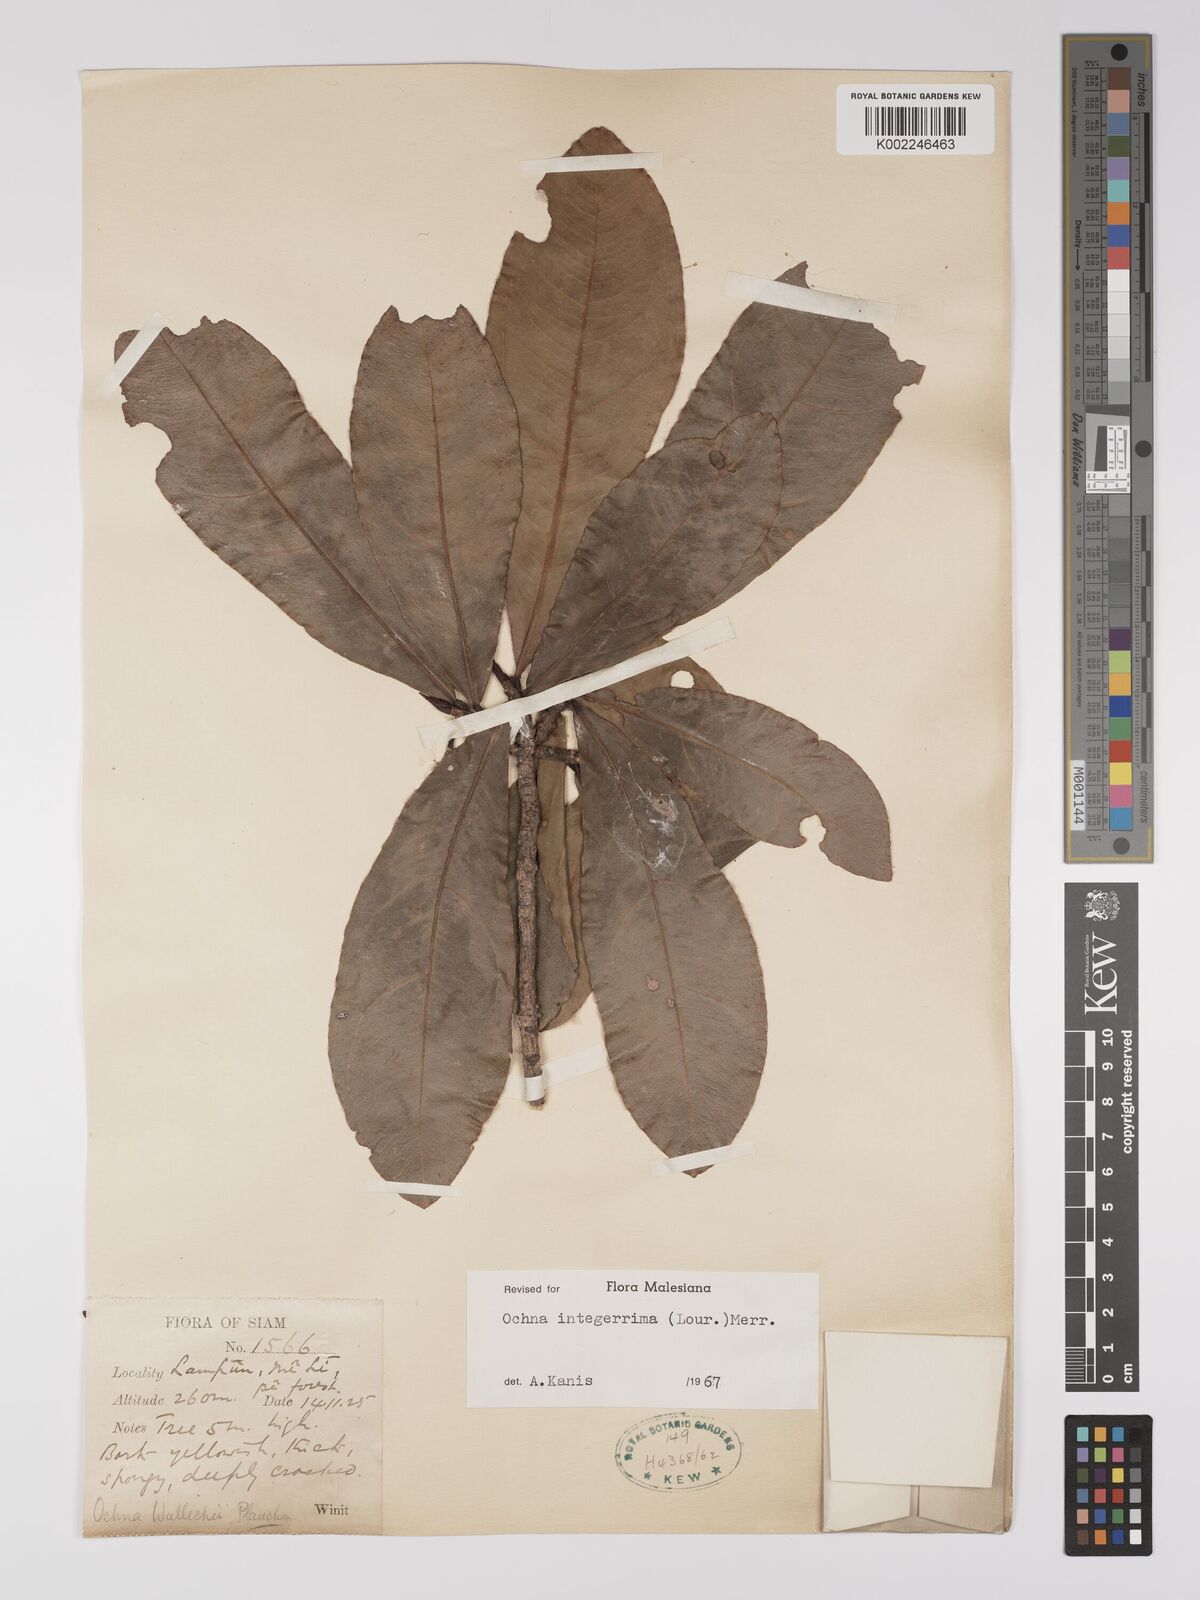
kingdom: Plantae
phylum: Tracheophyta
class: Magnoliopsida
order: Malpighiales
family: Ochnaceae
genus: Ochna
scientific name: Ochna integerrima
